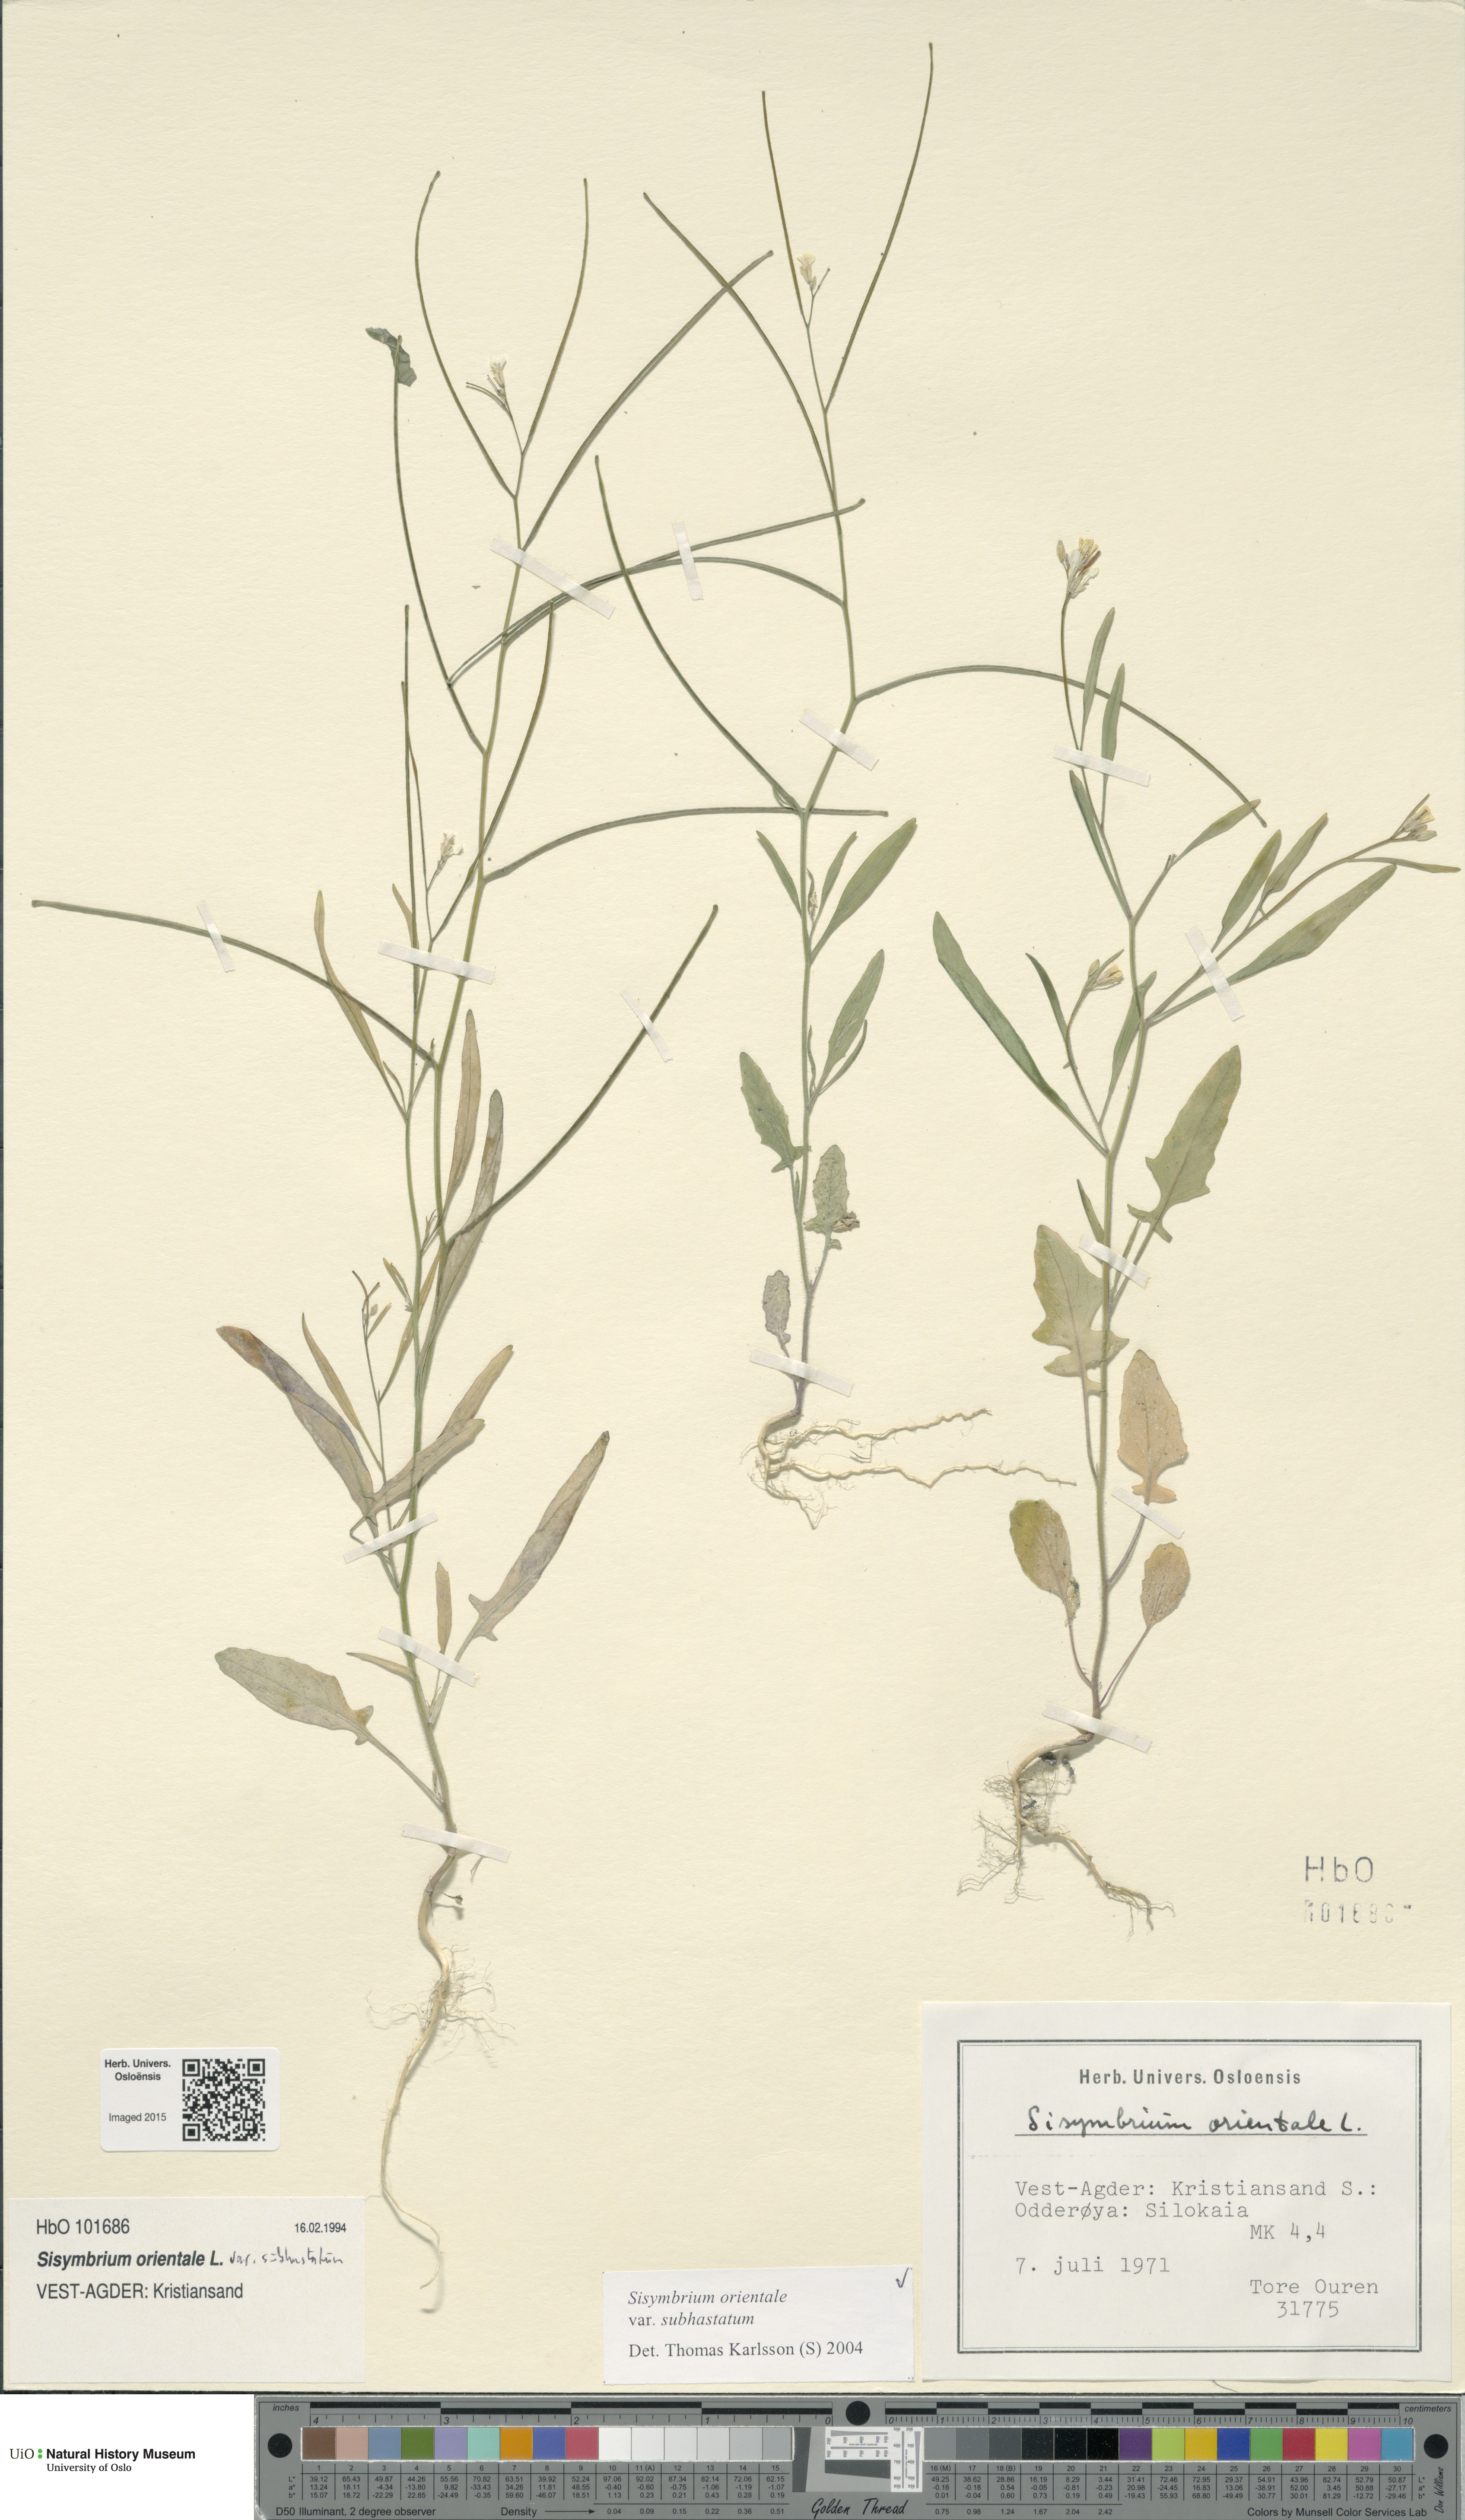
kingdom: Plantae
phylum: Tracheophyta
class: Magnoliopsida
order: Brassicales
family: Brassicaceae
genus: Sisymbrium
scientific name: Sisymbrium orientale
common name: Eastern rocket
